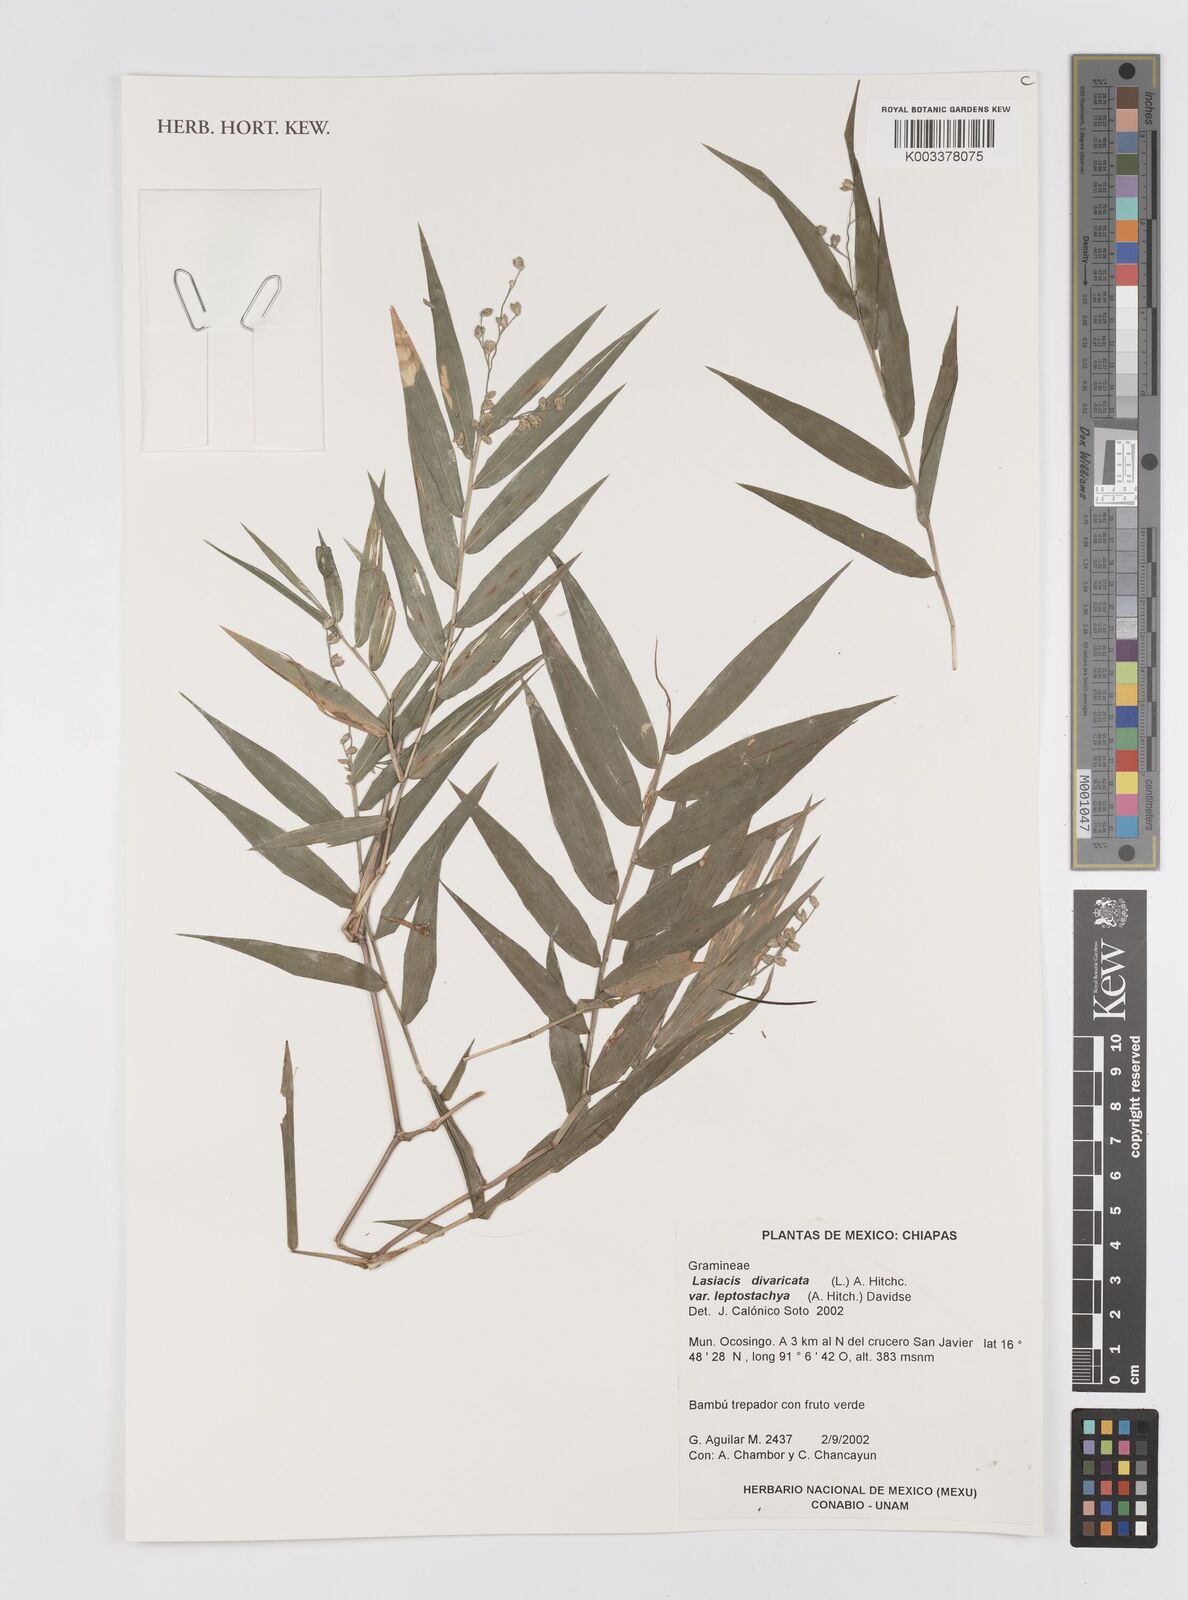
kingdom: Plantae
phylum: Tracheophyta
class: Liliopsida
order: Poales
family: Poaceae
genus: Lasiacis
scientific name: Lasiacis divaricata
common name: Smallcane
